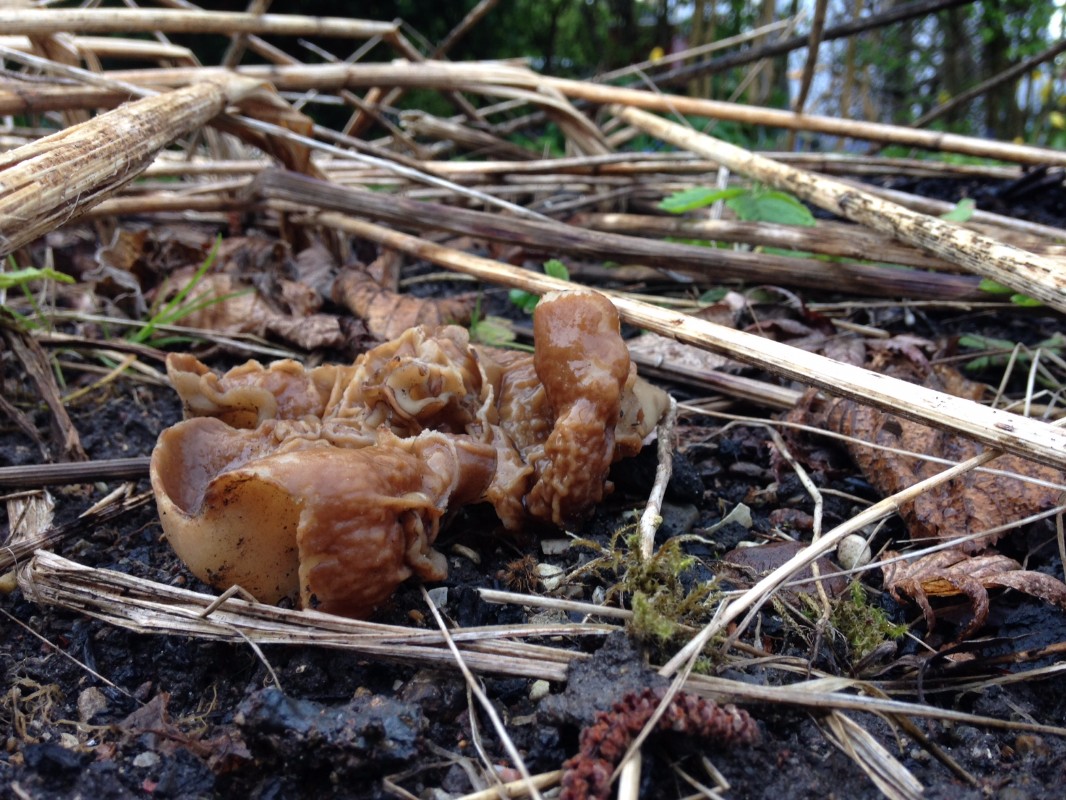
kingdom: Fungi
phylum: Ascomycota
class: Pezizomycetes
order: Pezizales
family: Morchellaceae
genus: Disciotis
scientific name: Disciotis venosa
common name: klor-bægermorkel
